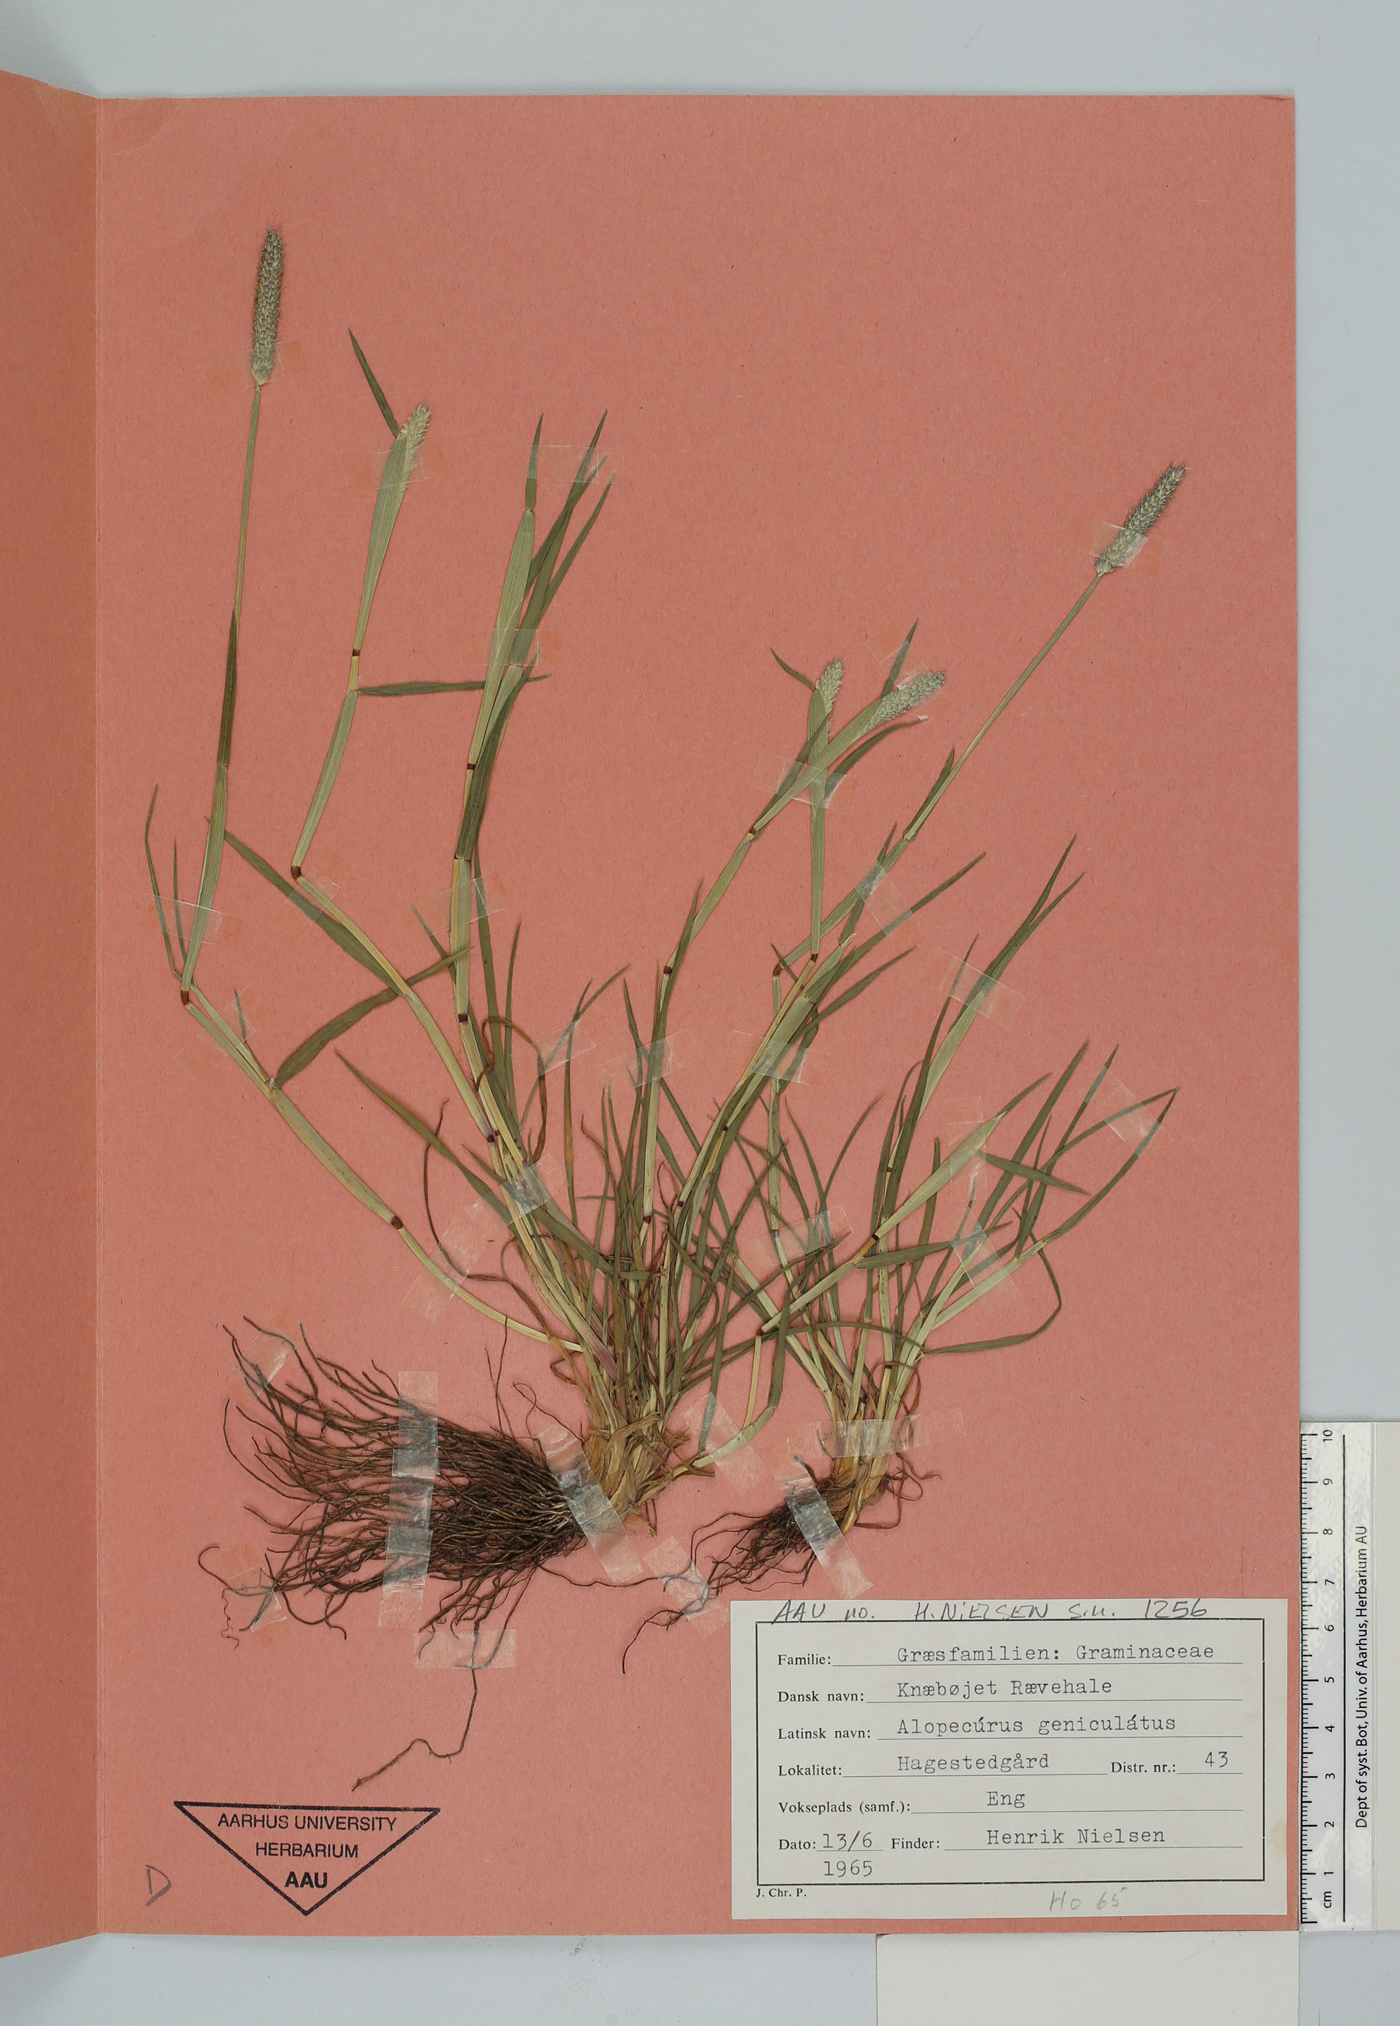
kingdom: Plantae
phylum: Tracheophyta
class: Liliopsida
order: Poales
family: Poaceae
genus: Alopecurus
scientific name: Alopecurus geniculatus
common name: Water foxtail
